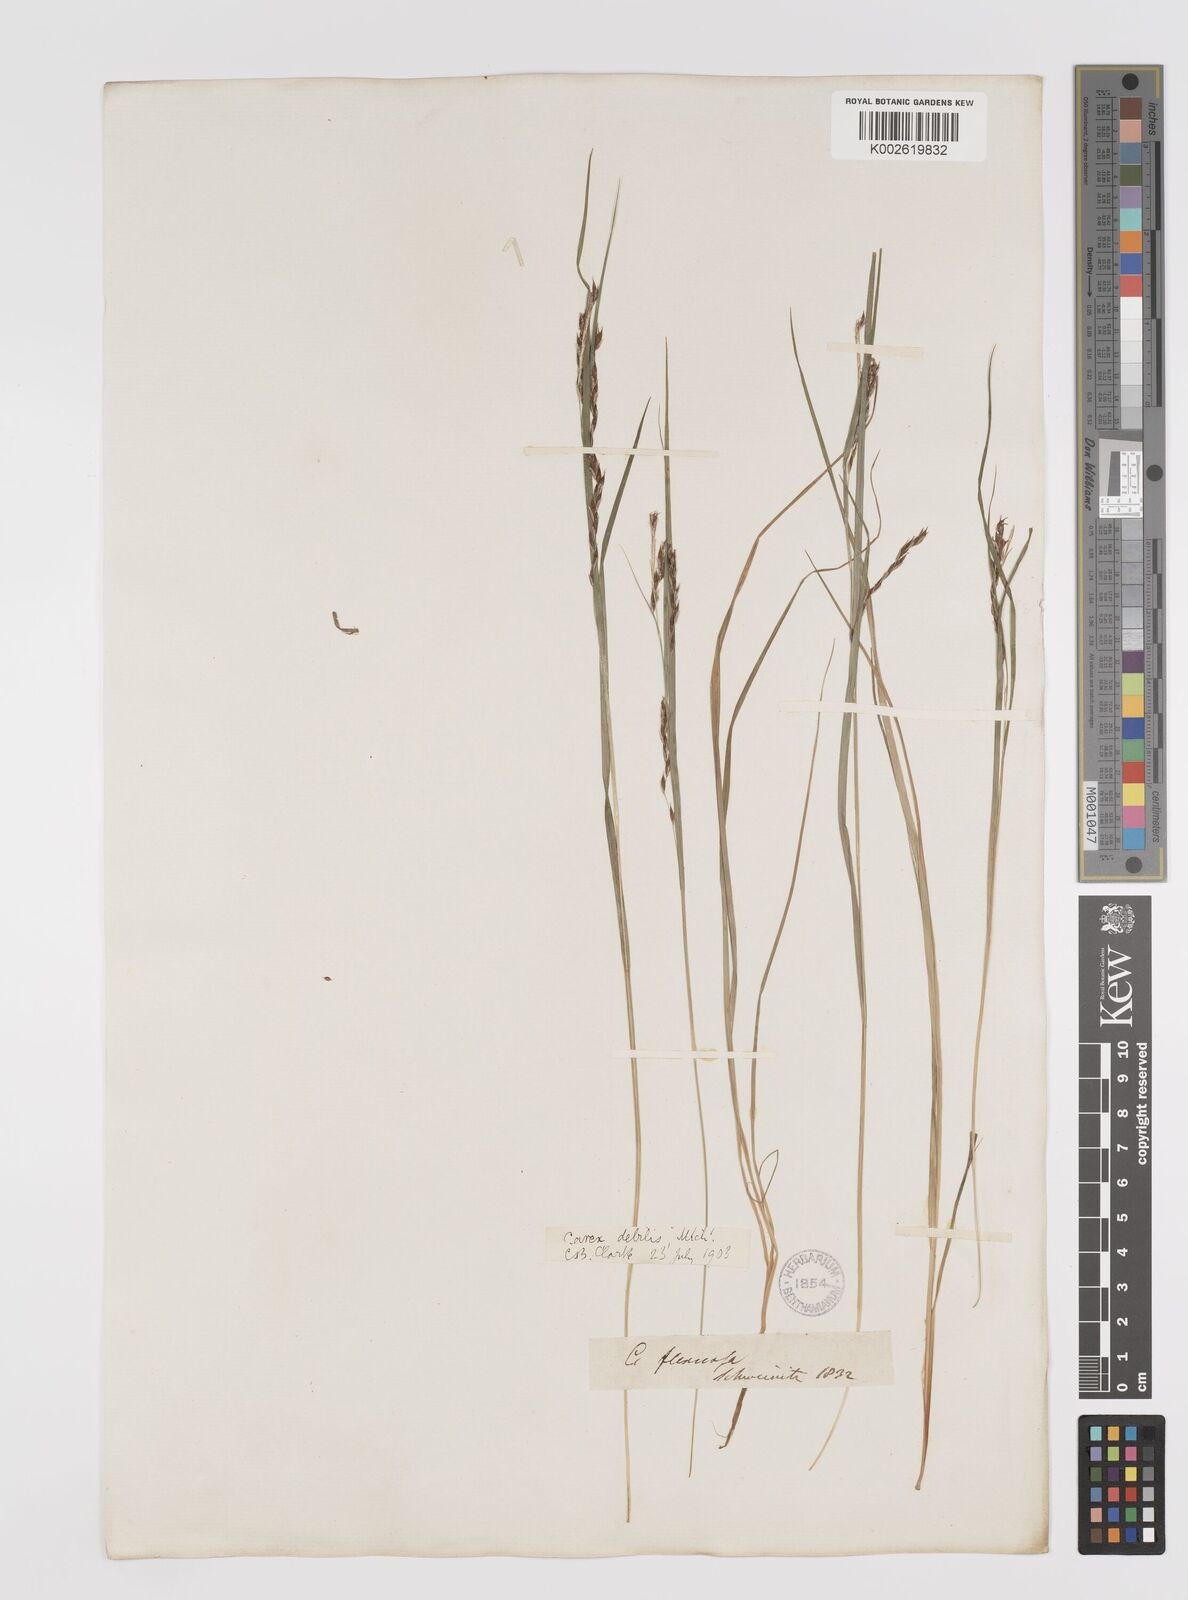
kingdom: Plantae
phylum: Tracheophyta
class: Liliopsida
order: Poales
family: Cyperaceae
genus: Carex
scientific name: Carex debilis
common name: White-edge sedge
